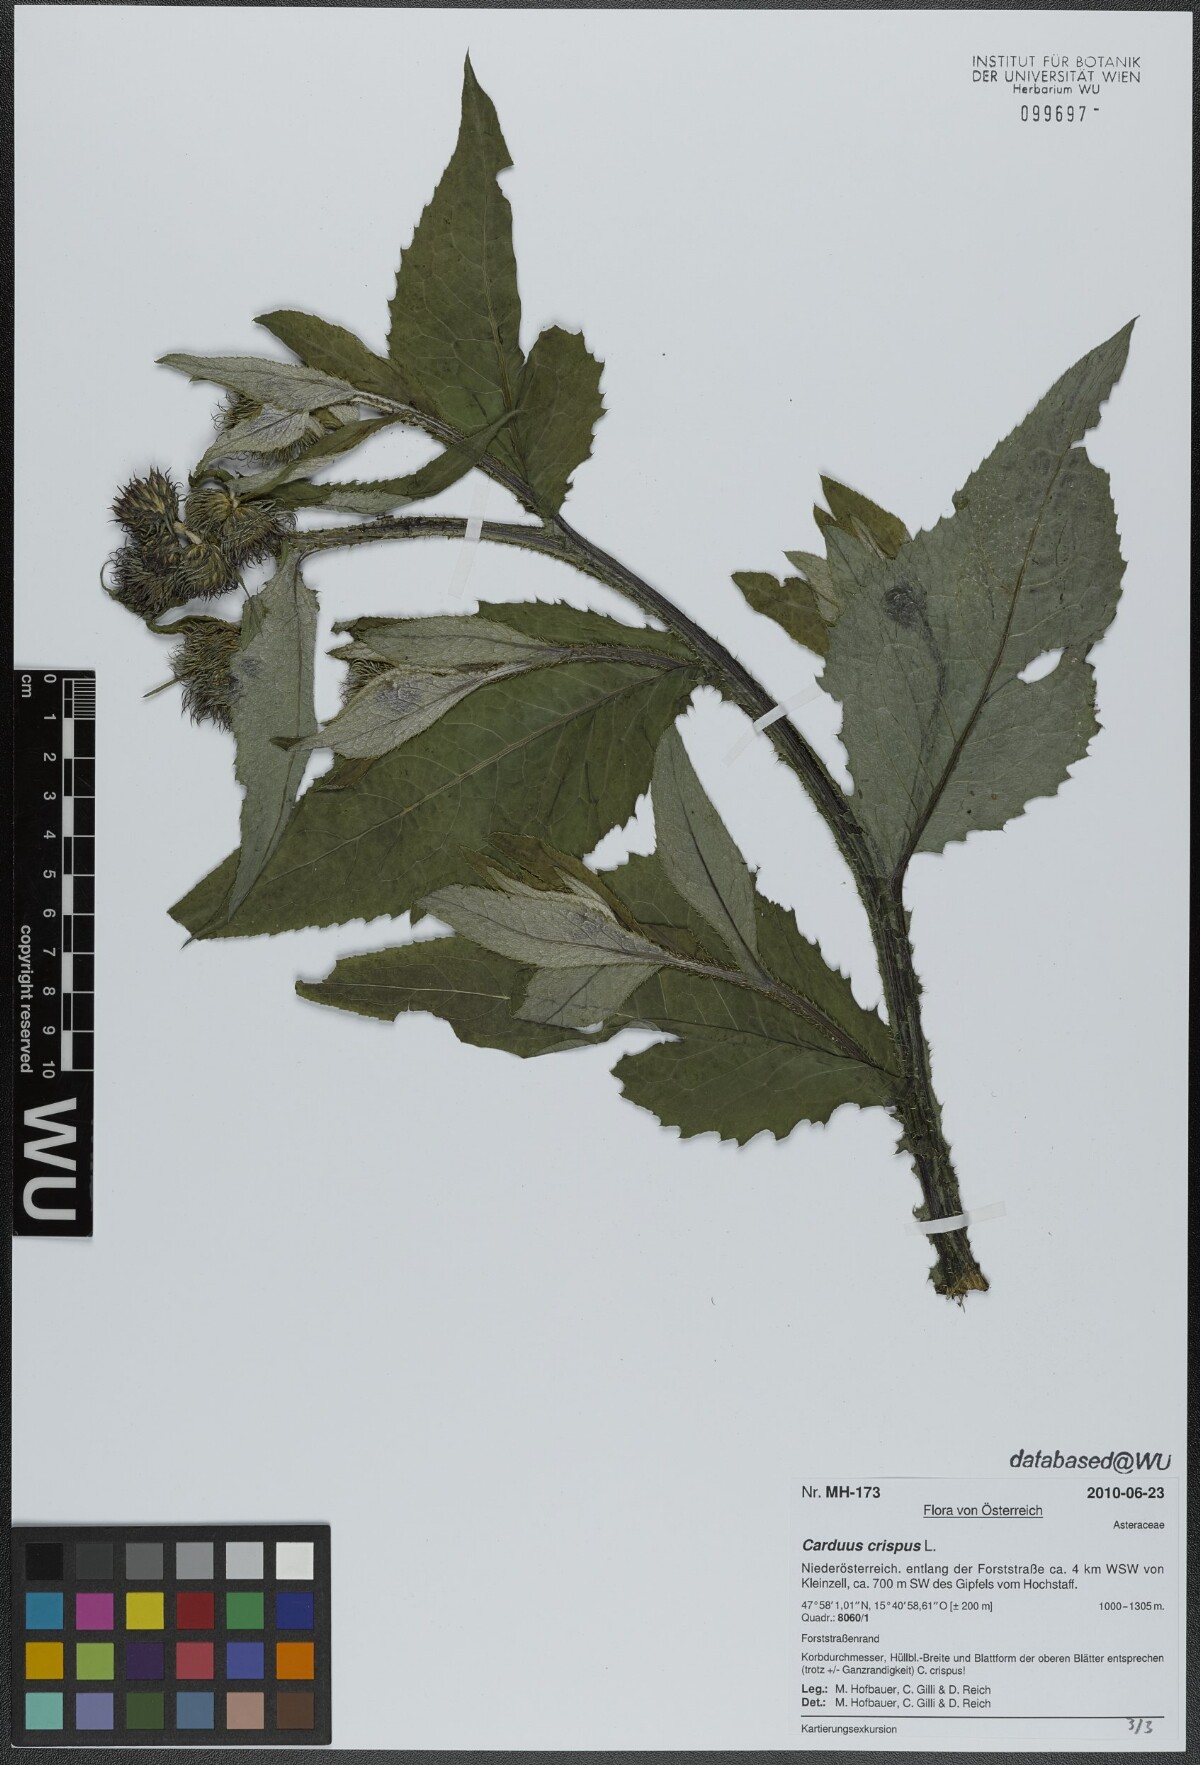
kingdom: Plantae
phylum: Tracheophyta
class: Magnoliopsida
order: Asterales
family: Asteraceae
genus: Carduus
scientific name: Carduus crispus
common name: Welted thistle
